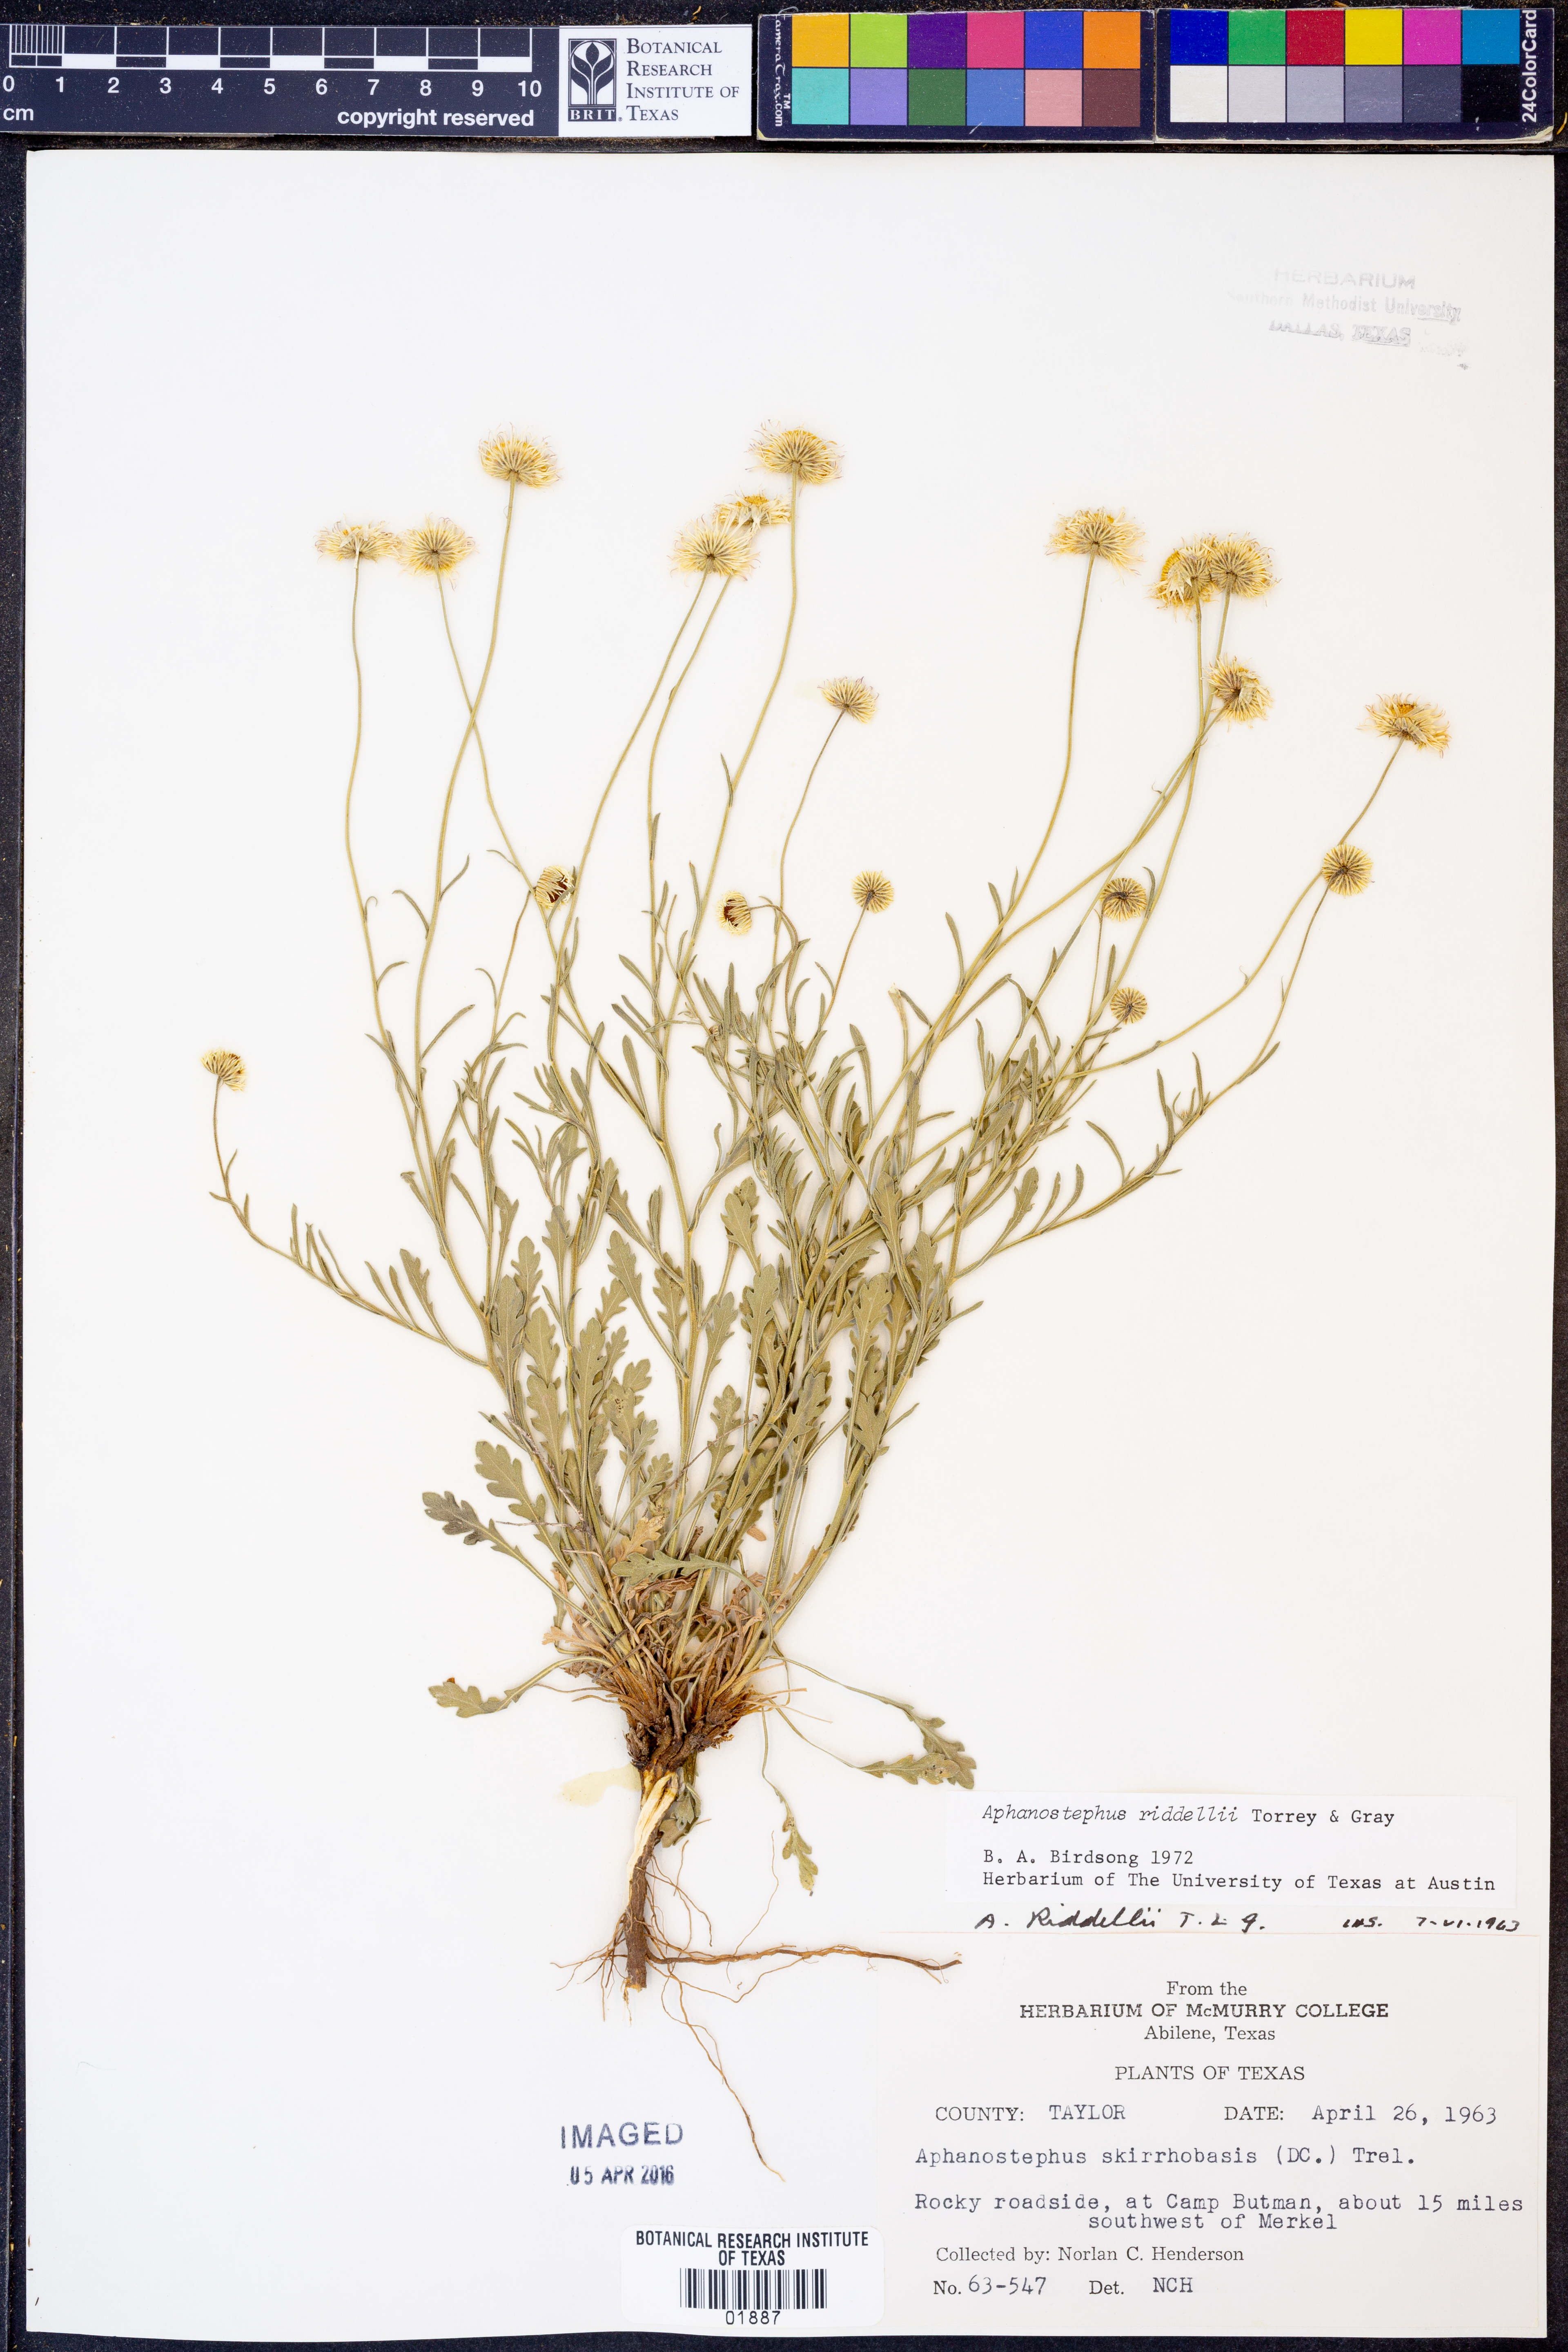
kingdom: Plantae
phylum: Tracheophyta
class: Magnoliopsida
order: Asterales
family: Asteraceae
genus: Aphanostephus
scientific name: Aphanostephus riddellii
